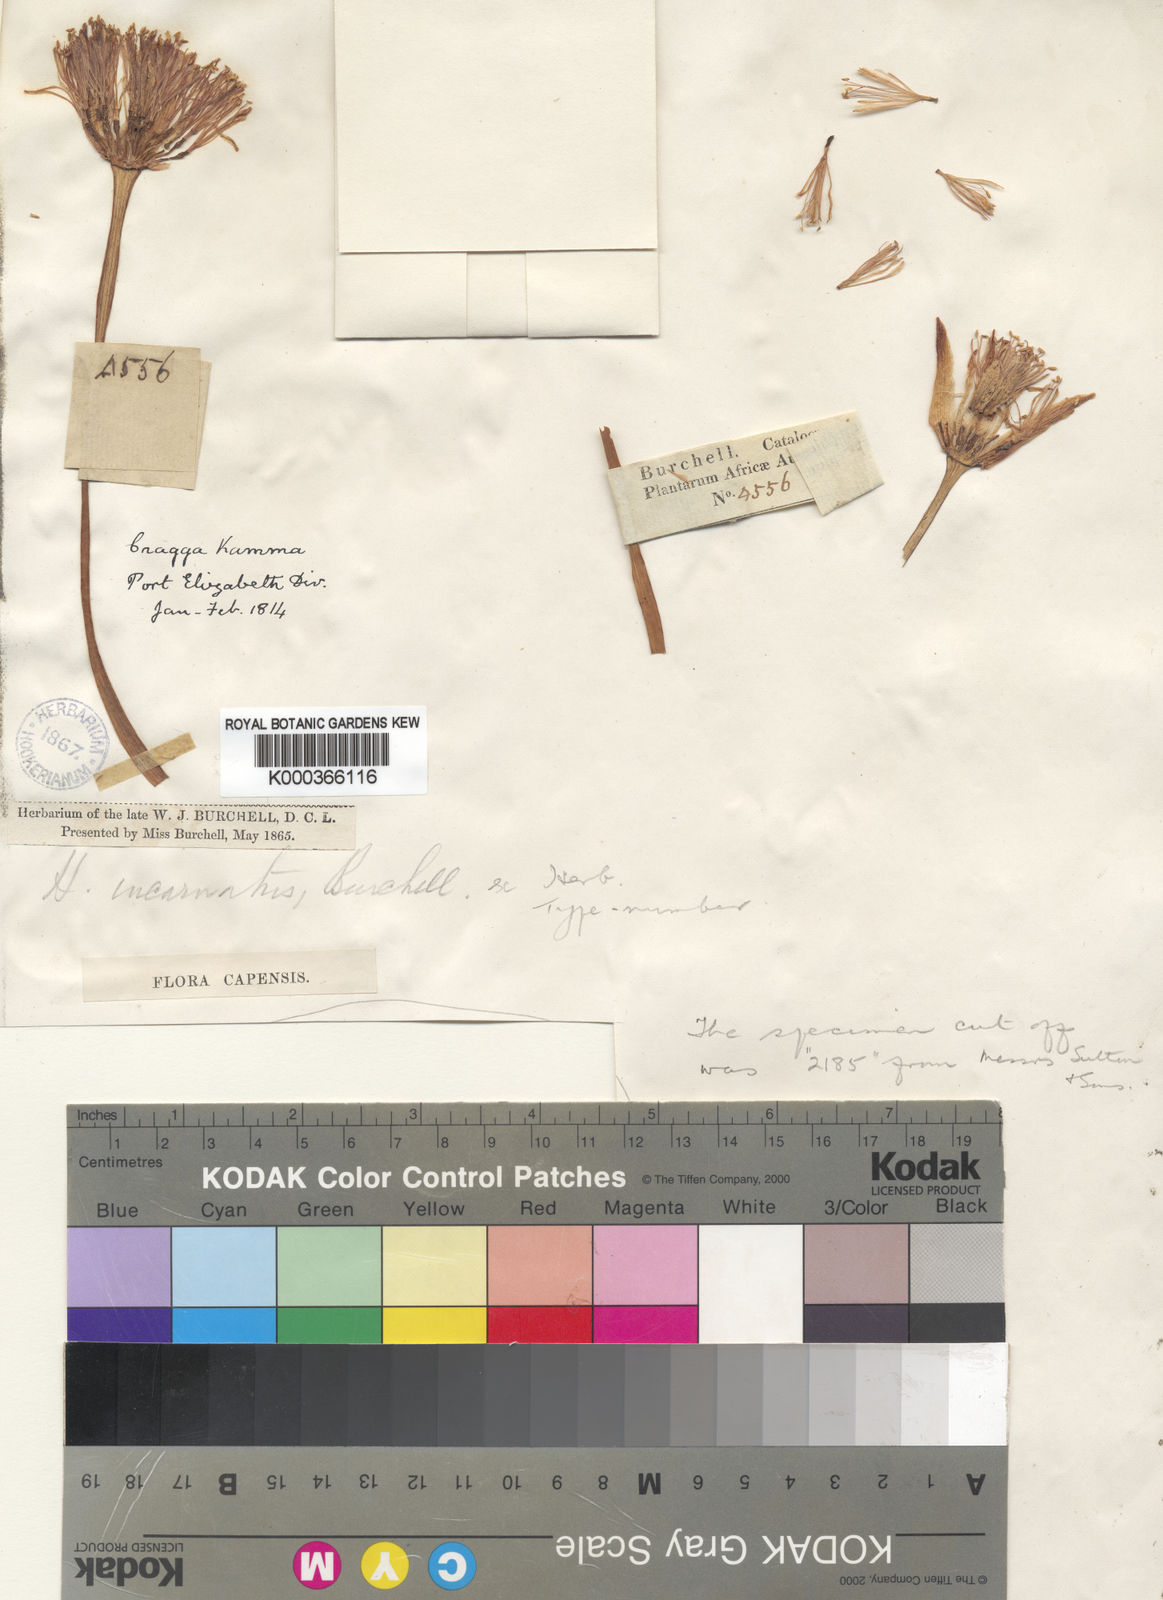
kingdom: Plantae
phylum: Tracheophyta
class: Liliopsida
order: Asparagales
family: Amaryllidaceae
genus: Haemanthus
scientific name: Haemanthus sanguineus
